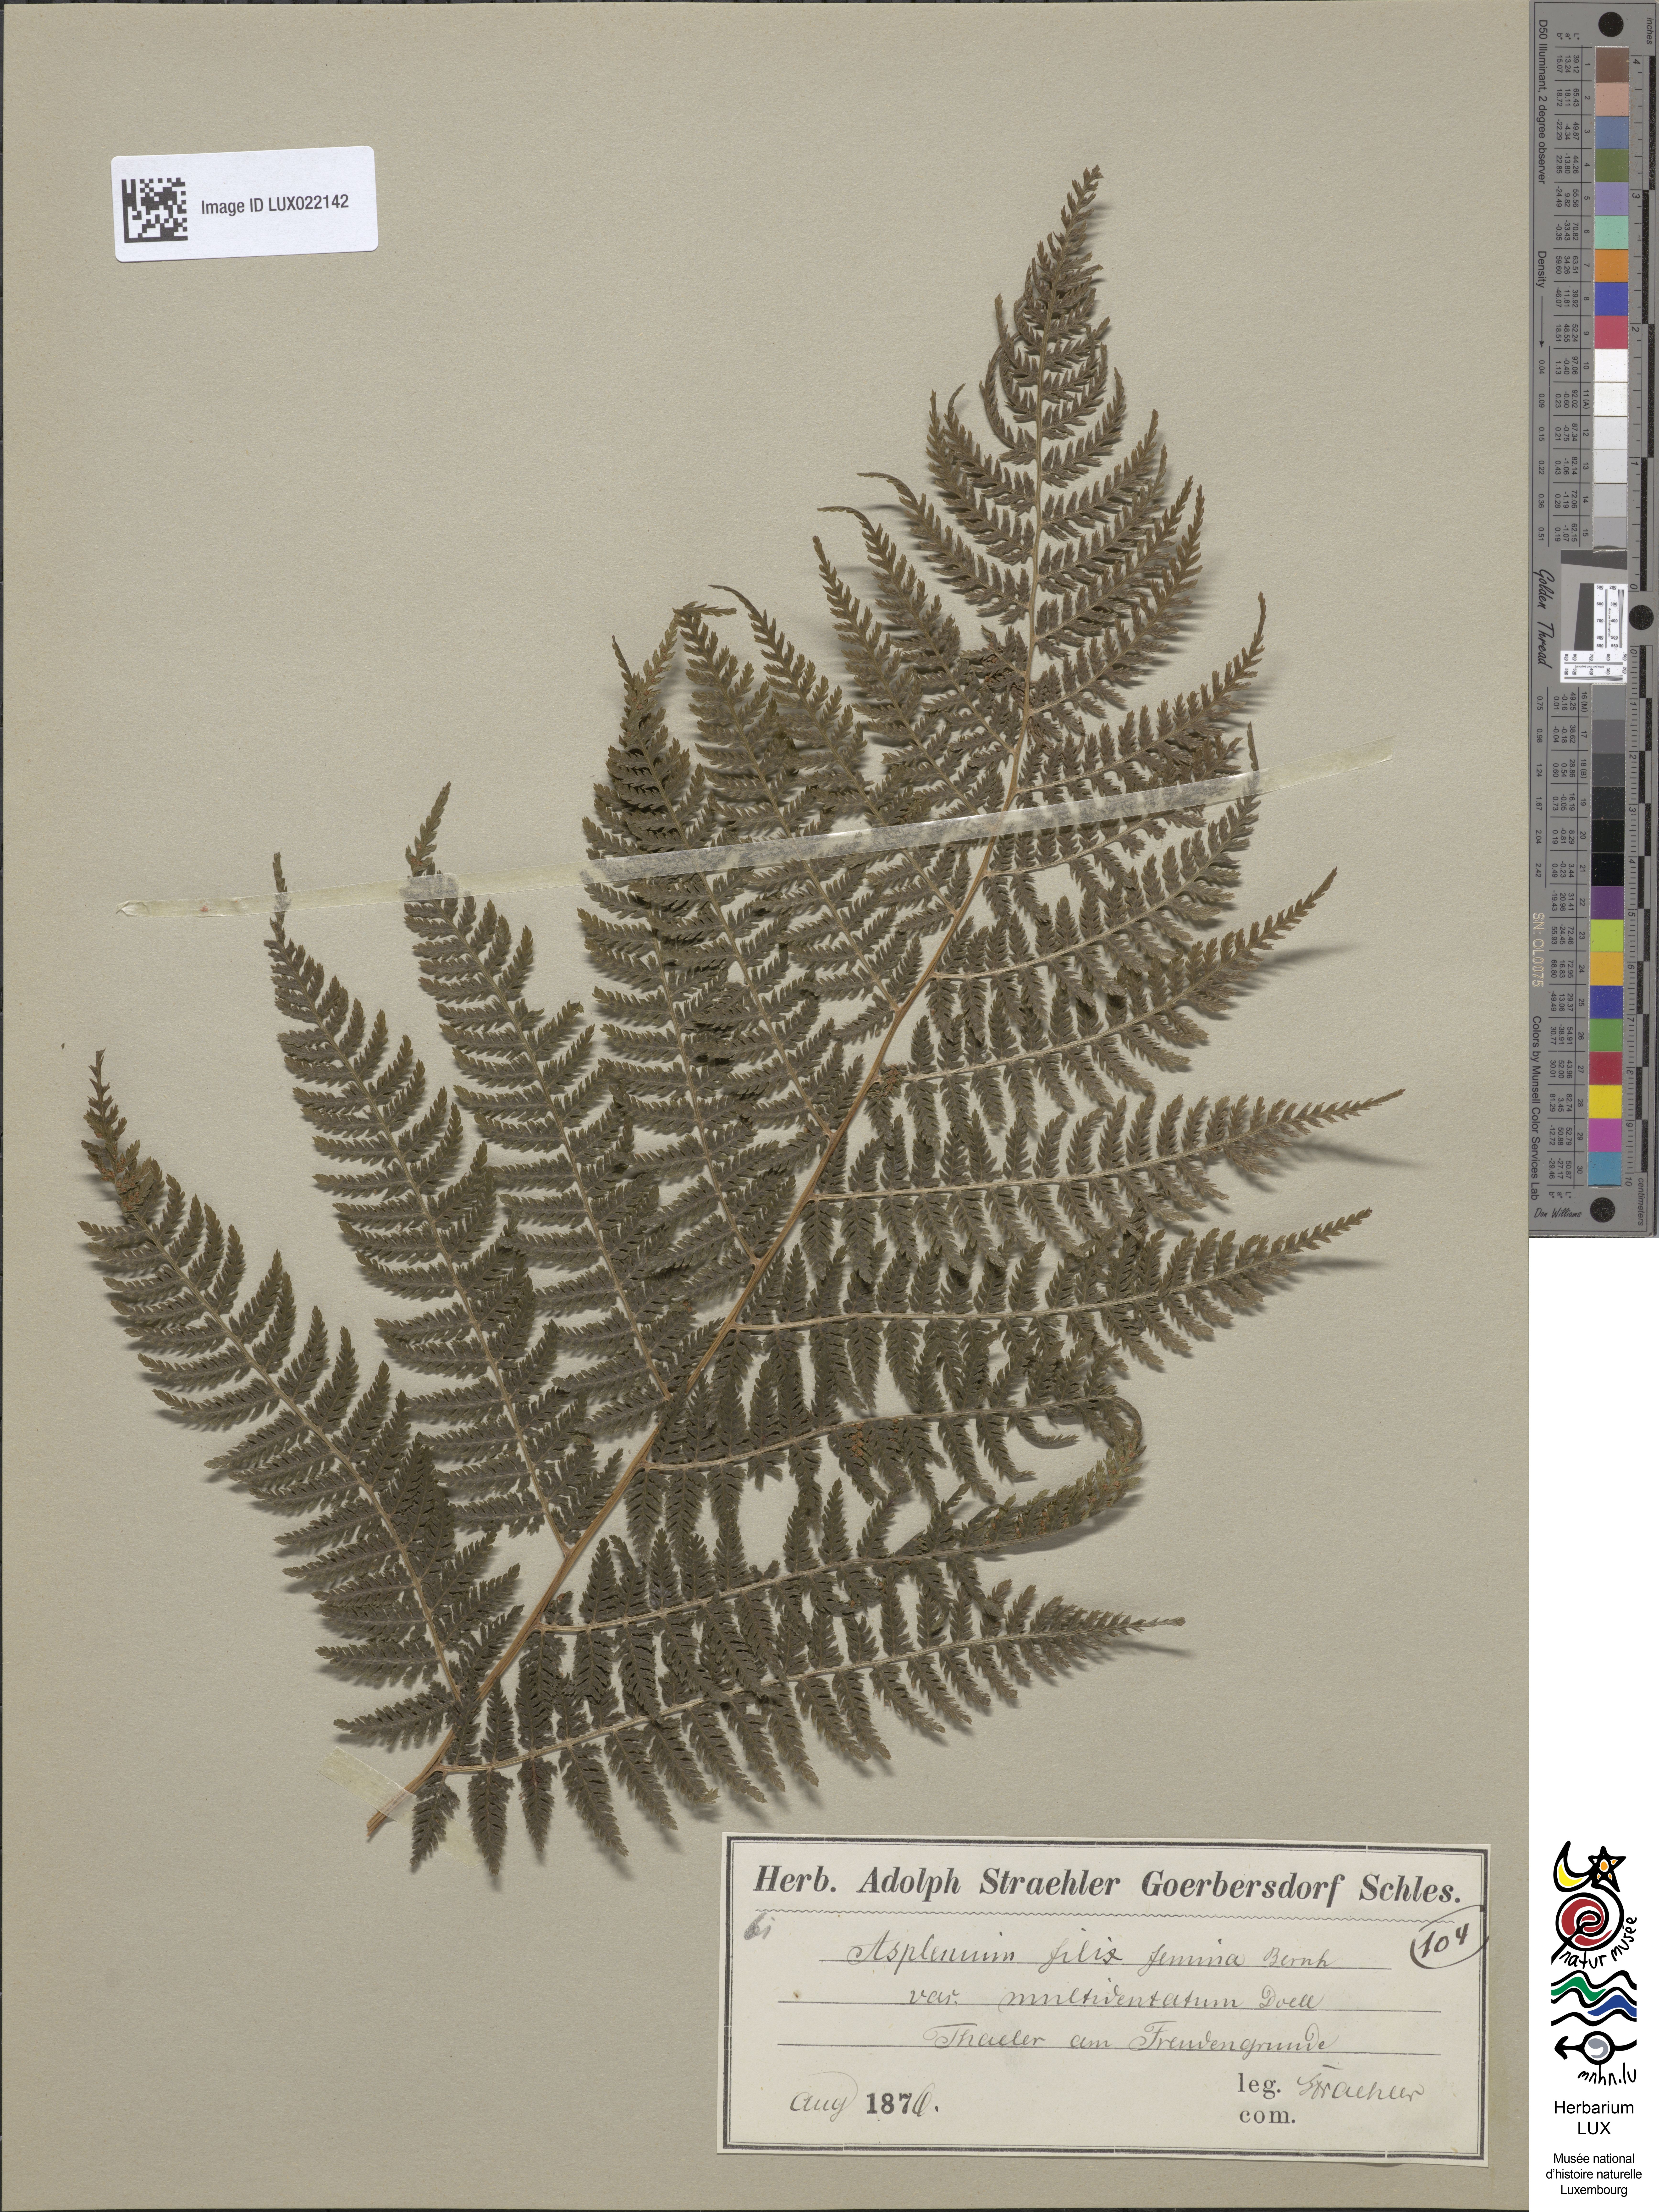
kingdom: Plantae
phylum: Tracheophyta
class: Polypodiopsida
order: Polypodiales
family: Athyriaceae
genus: Athyrium
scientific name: Athyrium filix-femina
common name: Lady fern
